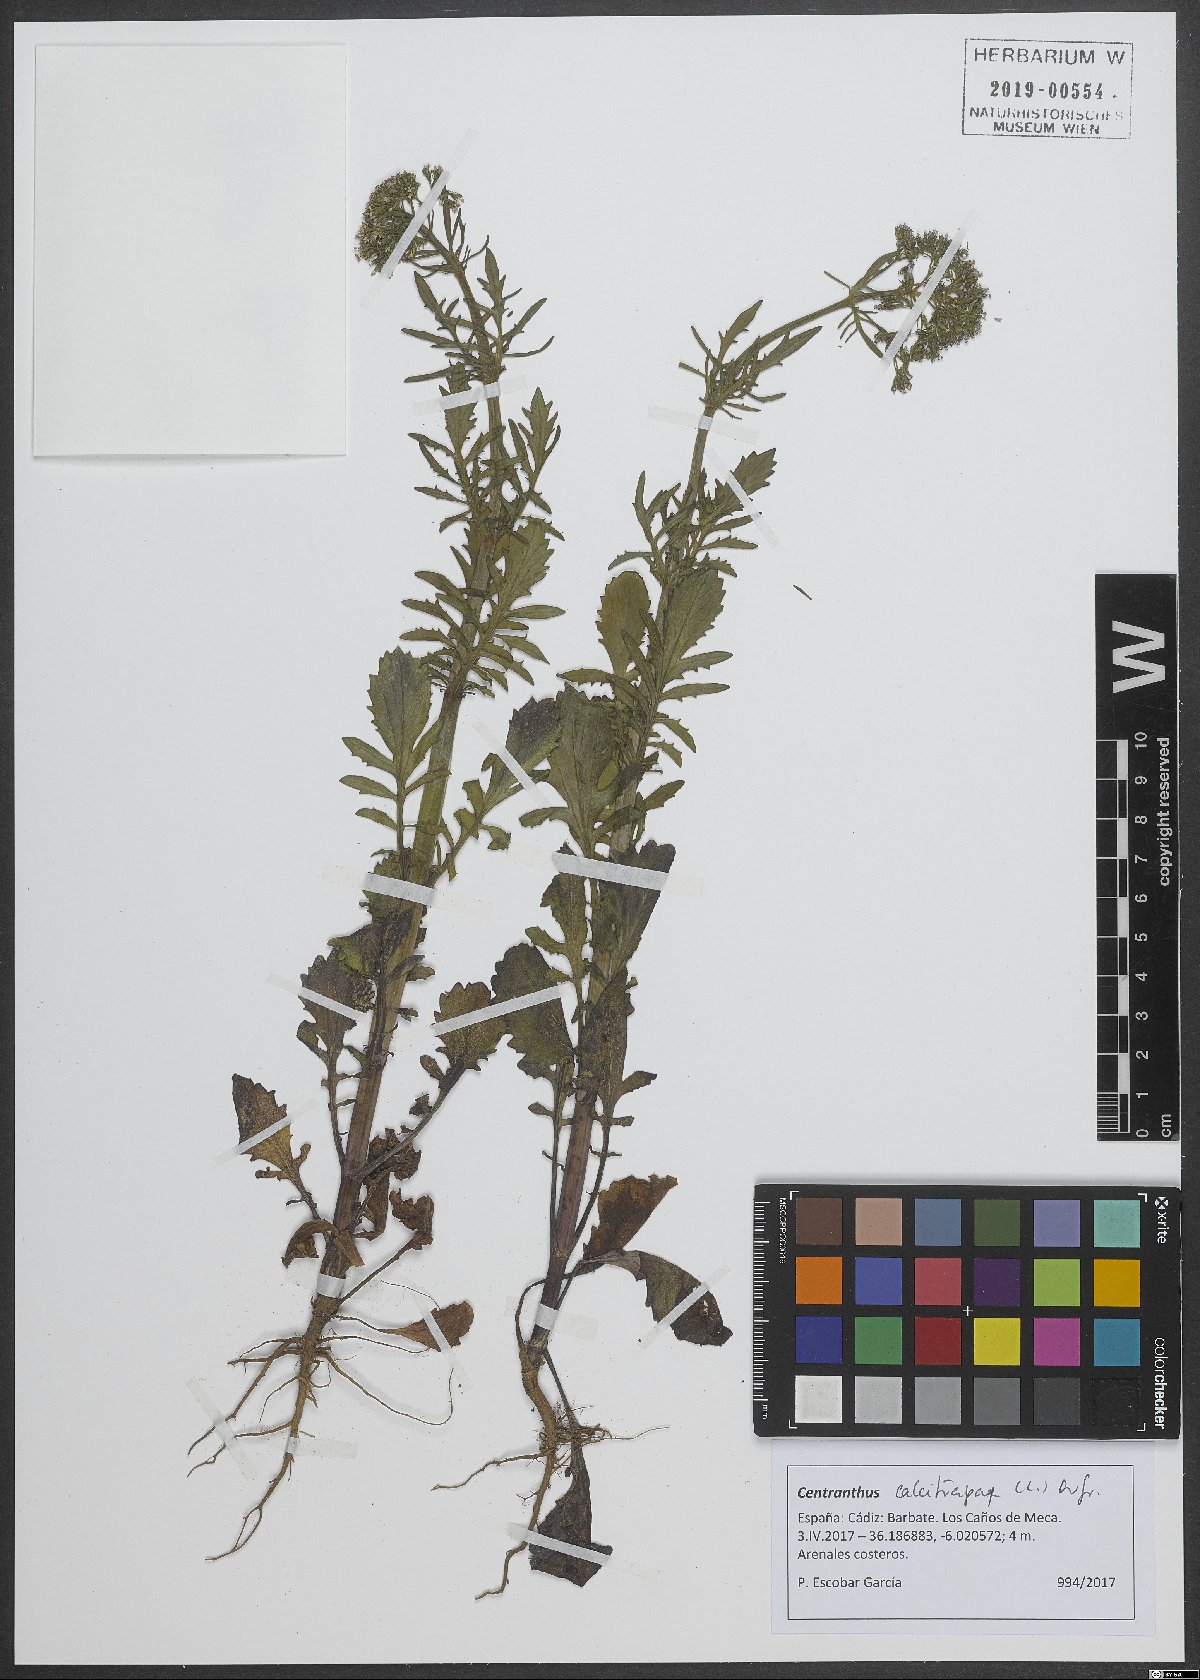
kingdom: Plantae
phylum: Tracheophyta
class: Magnoliopsida
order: Dipsacales
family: Caprifoliaceae
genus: Centranthus
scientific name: Centranthus calcitrapae
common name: Annual valerian
